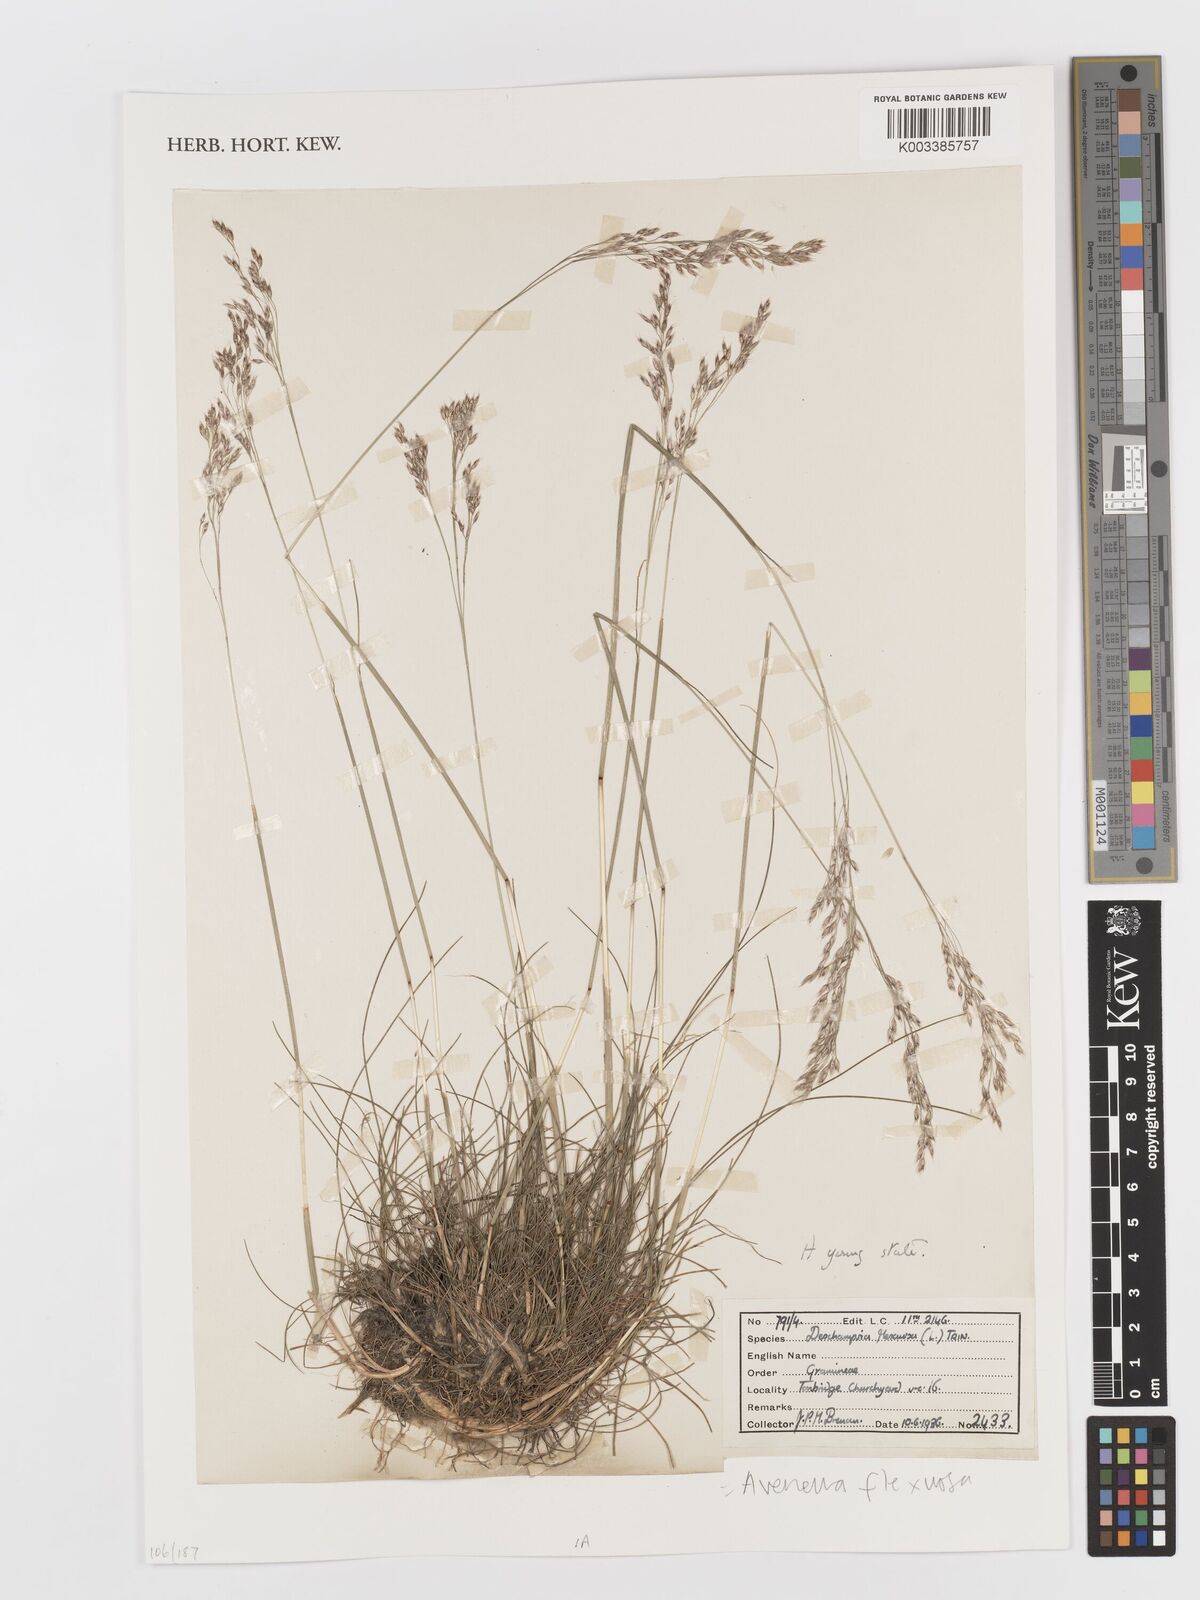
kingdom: Plantae
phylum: Tracheophyta
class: Liliopsida
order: Poales
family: Poaceae
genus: Avenella
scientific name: Avenella flexuosa
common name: Wavy hairgrass
